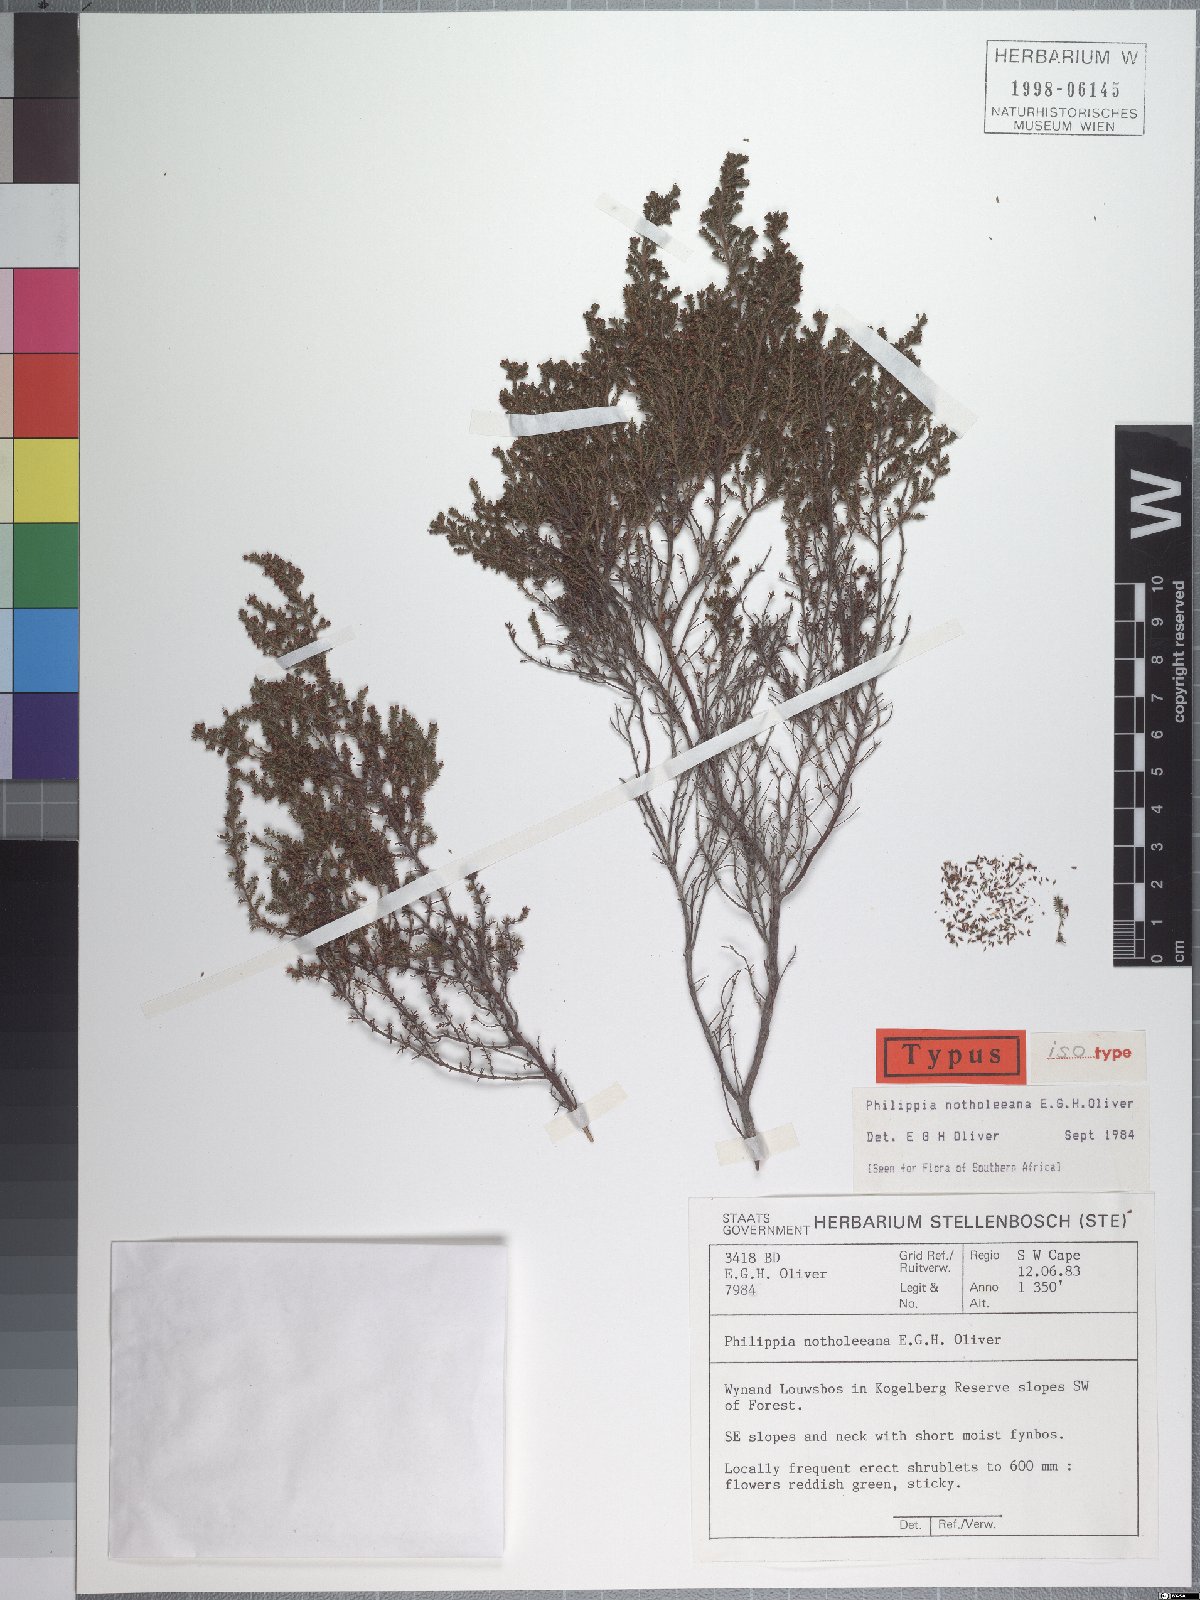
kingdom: Plantae
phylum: Tracheophyta
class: Magnoliopsida
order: Ericales
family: Ericaceae
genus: Erica
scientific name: Erica notholeeana
